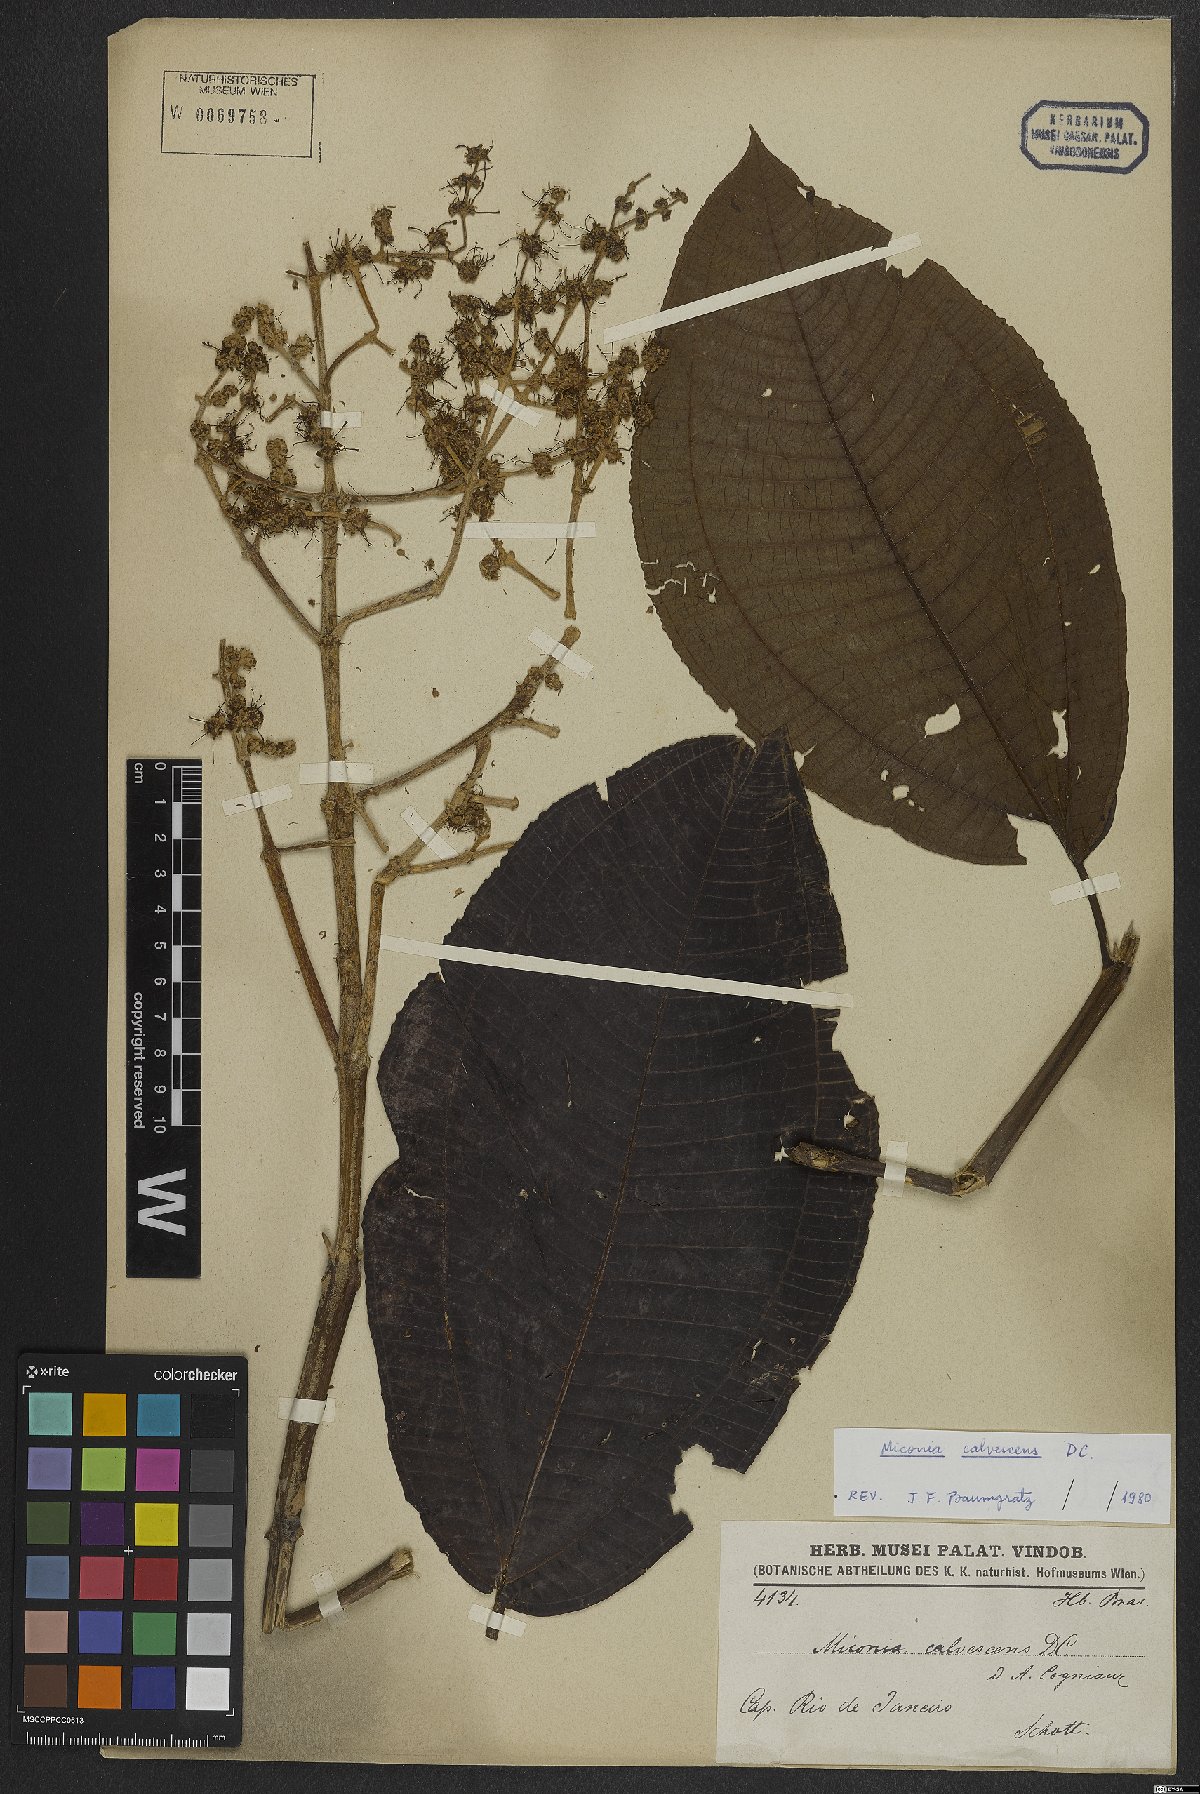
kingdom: Plantae
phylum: Tracheophyta
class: Magnoliopsida
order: Myrtales
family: Melastomataceae
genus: Miconia
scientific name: Miconia calvescens
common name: Purple plague
